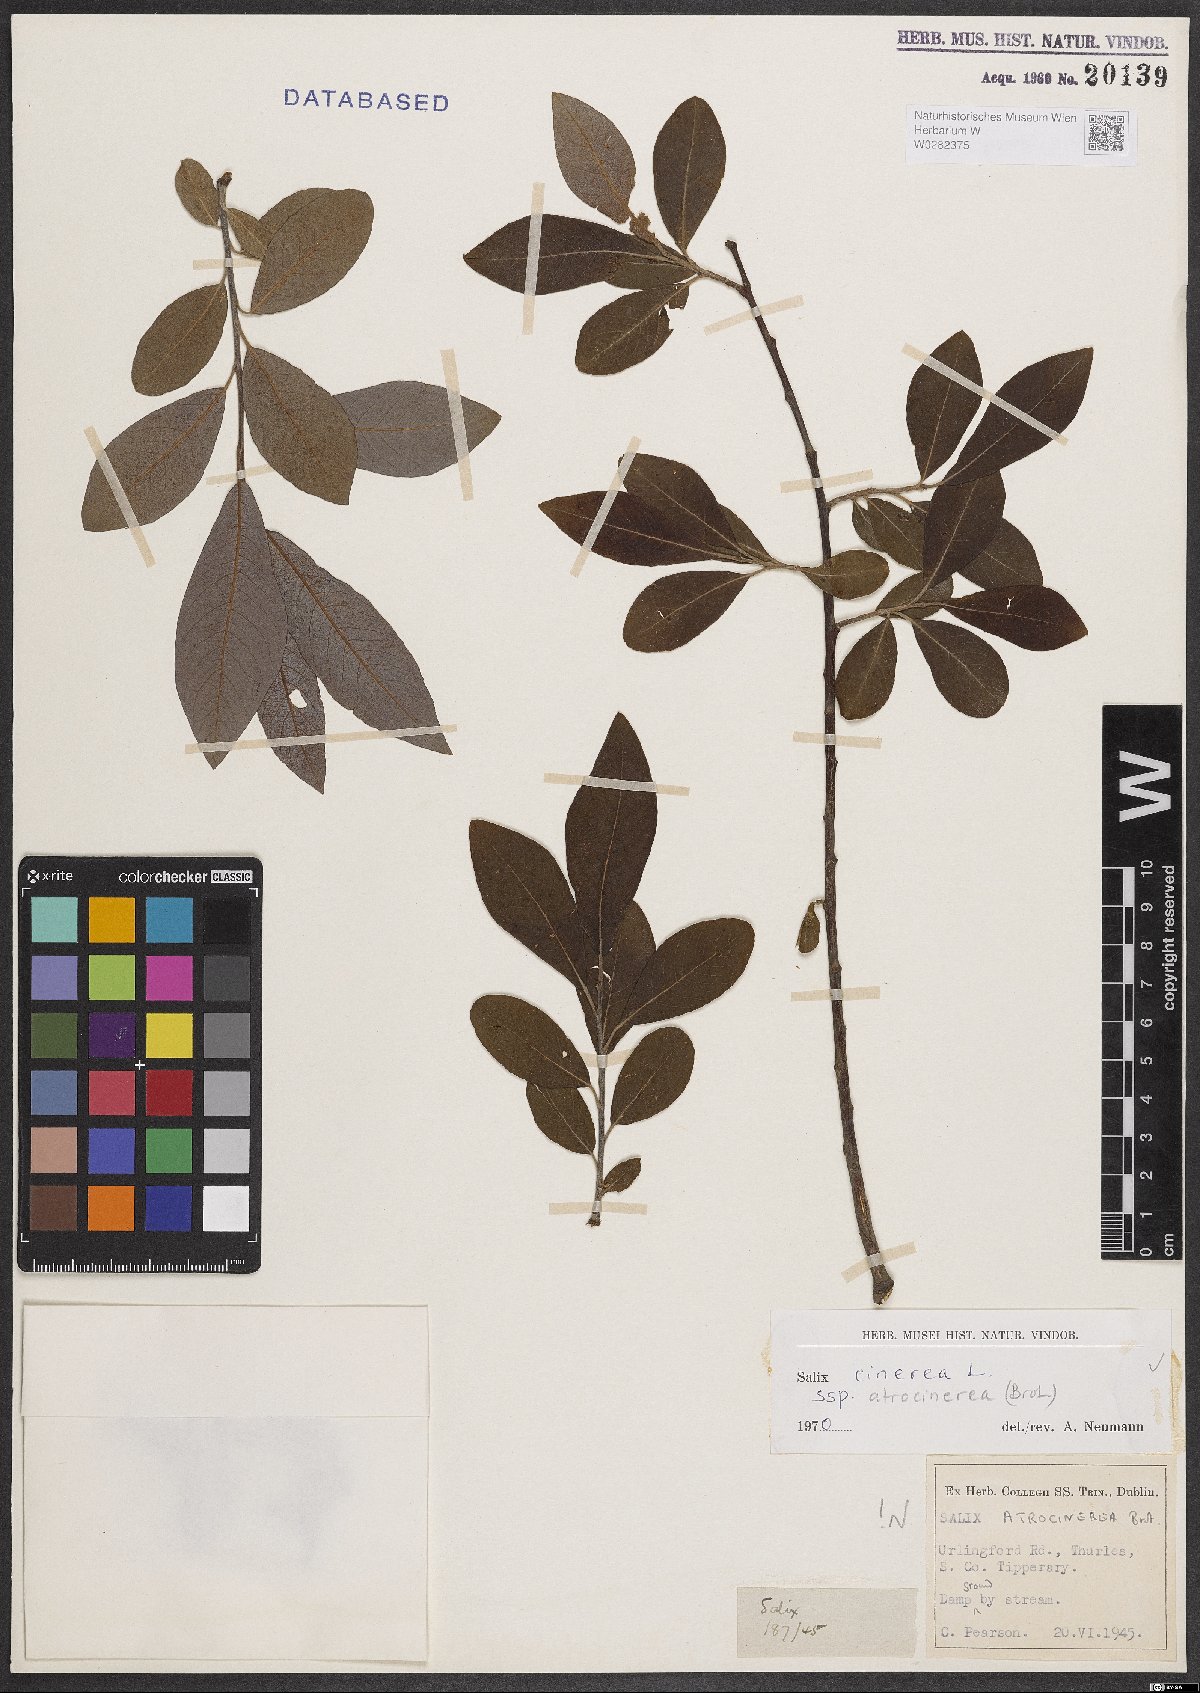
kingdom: Plantae
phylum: Tracheophyta
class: Magnoliopsida
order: Malpighiales
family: Salicaceae
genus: Salix
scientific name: Salix atrocinerea
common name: Rusty willow
